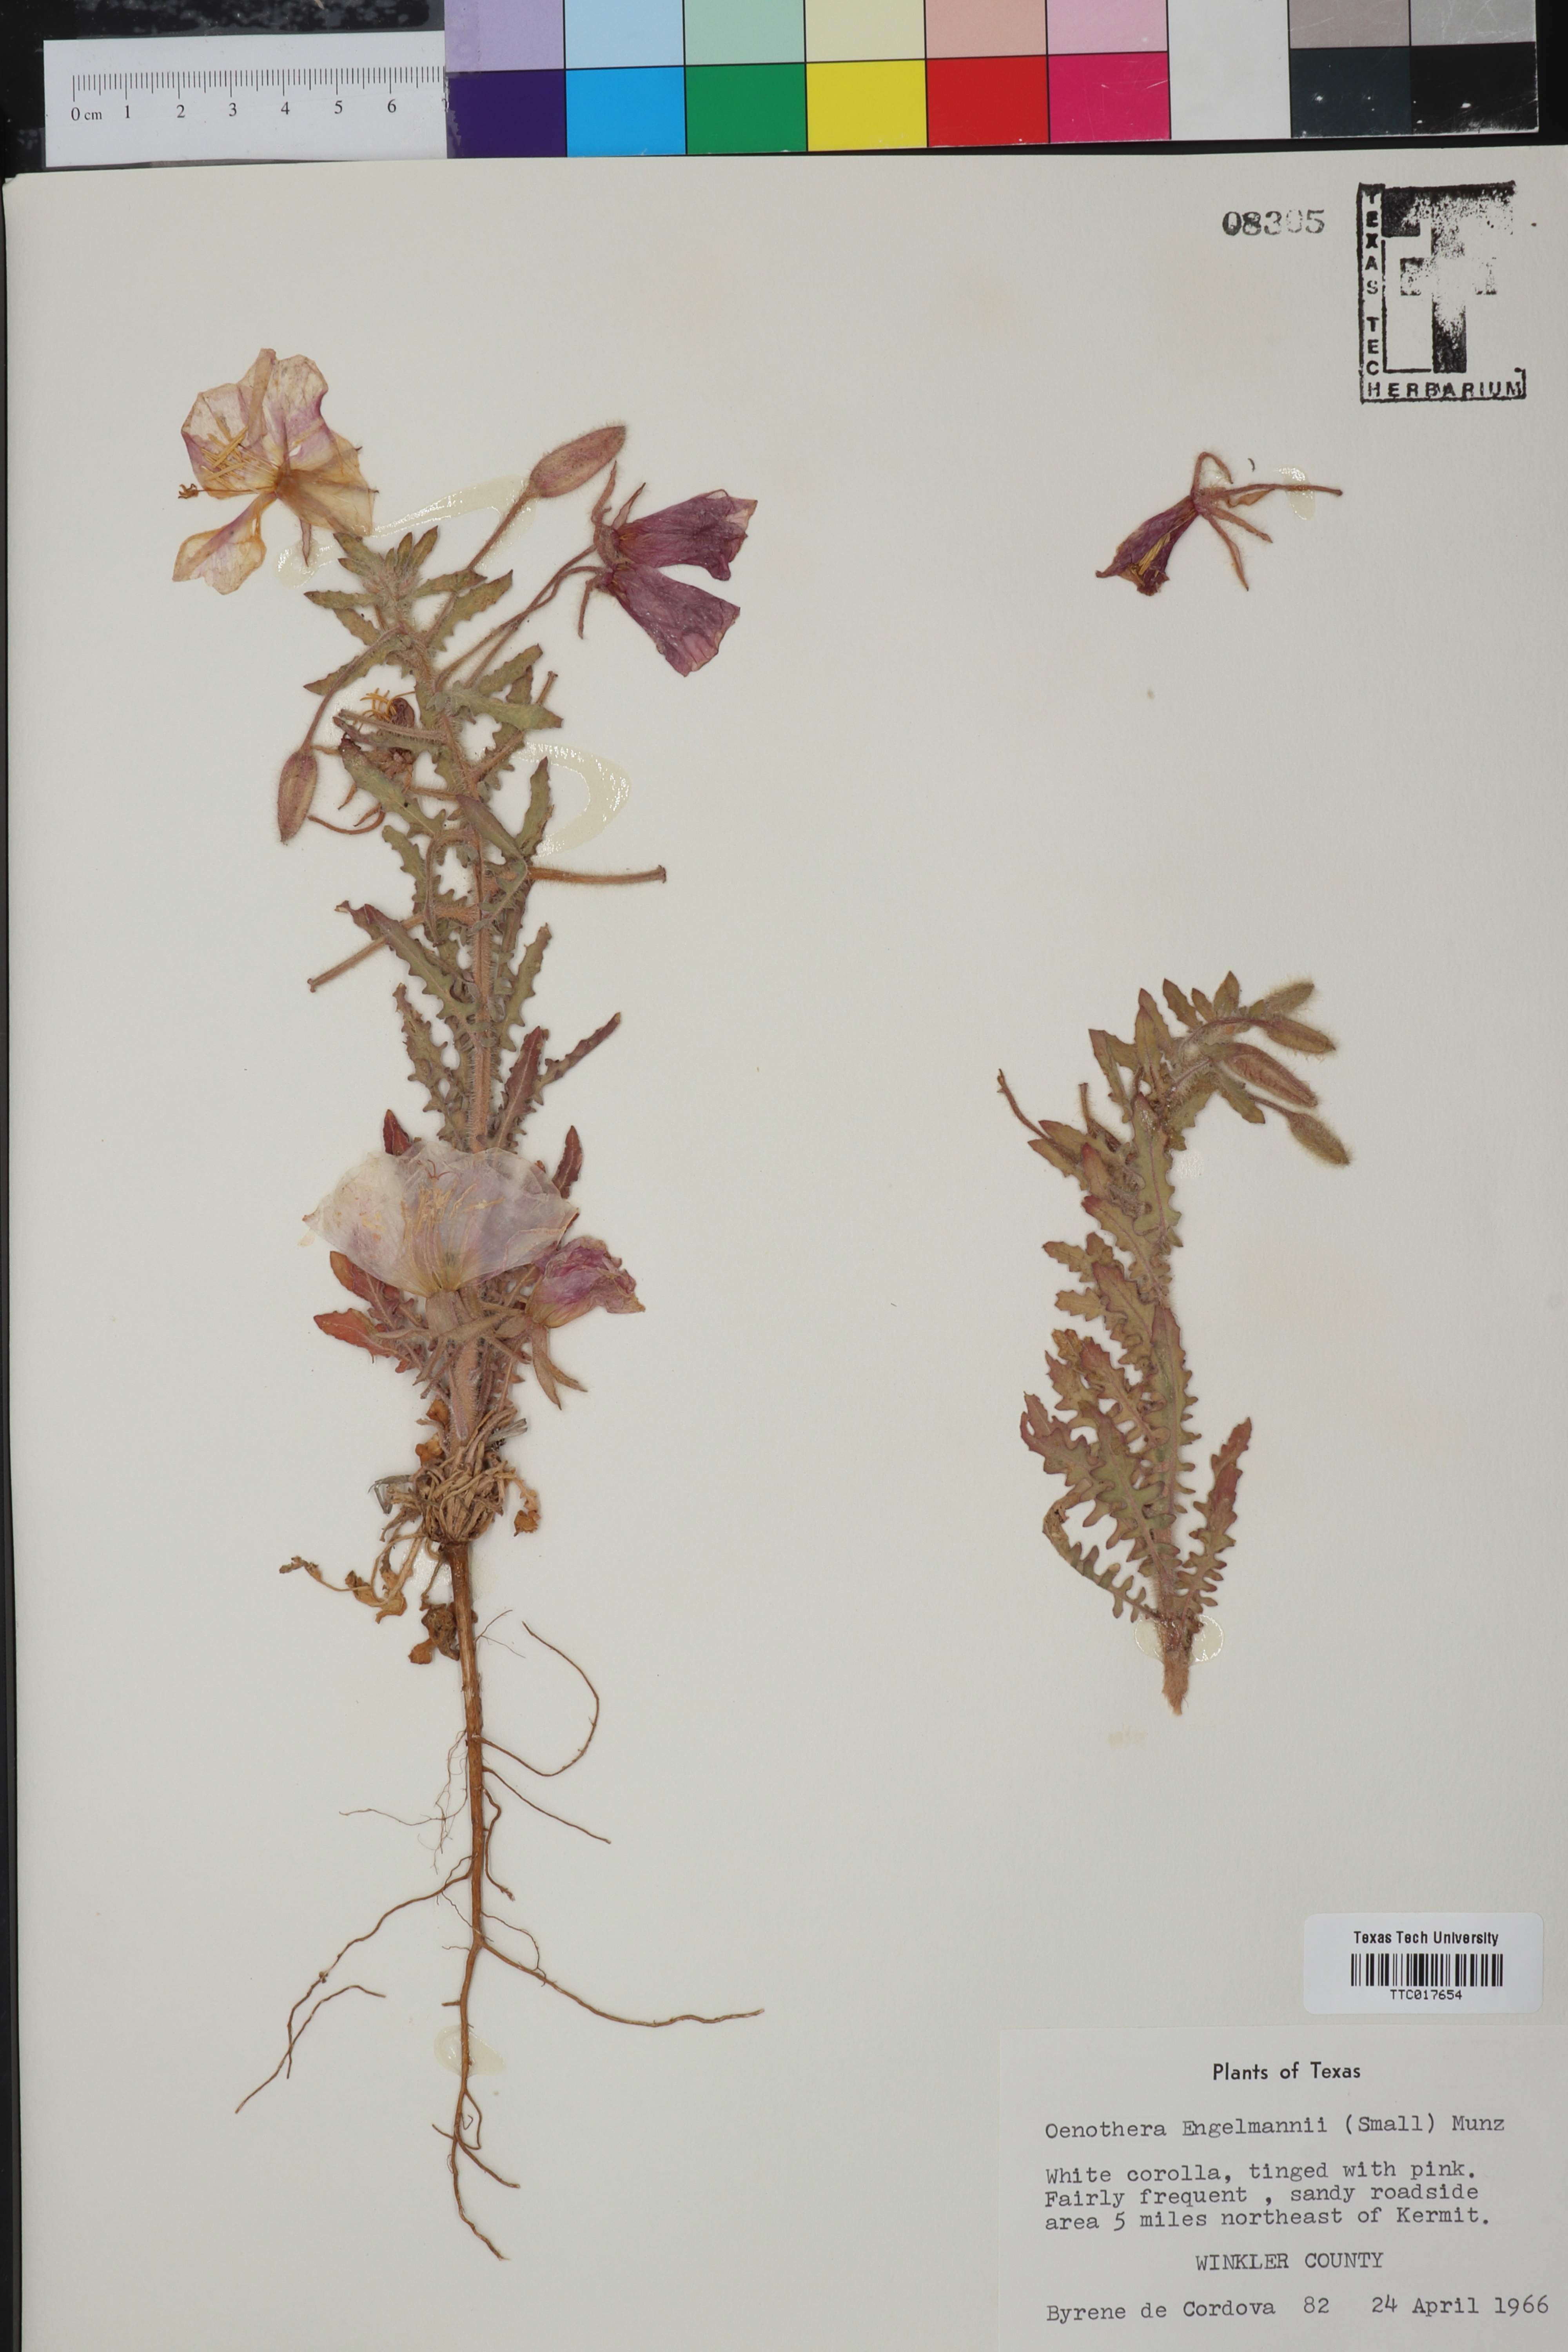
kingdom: Plantae
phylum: Tracheophyta
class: Magnoliopsida
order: Myrtales
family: Onagraceae
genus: Oenothera
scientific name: Oenothera engelmannii
